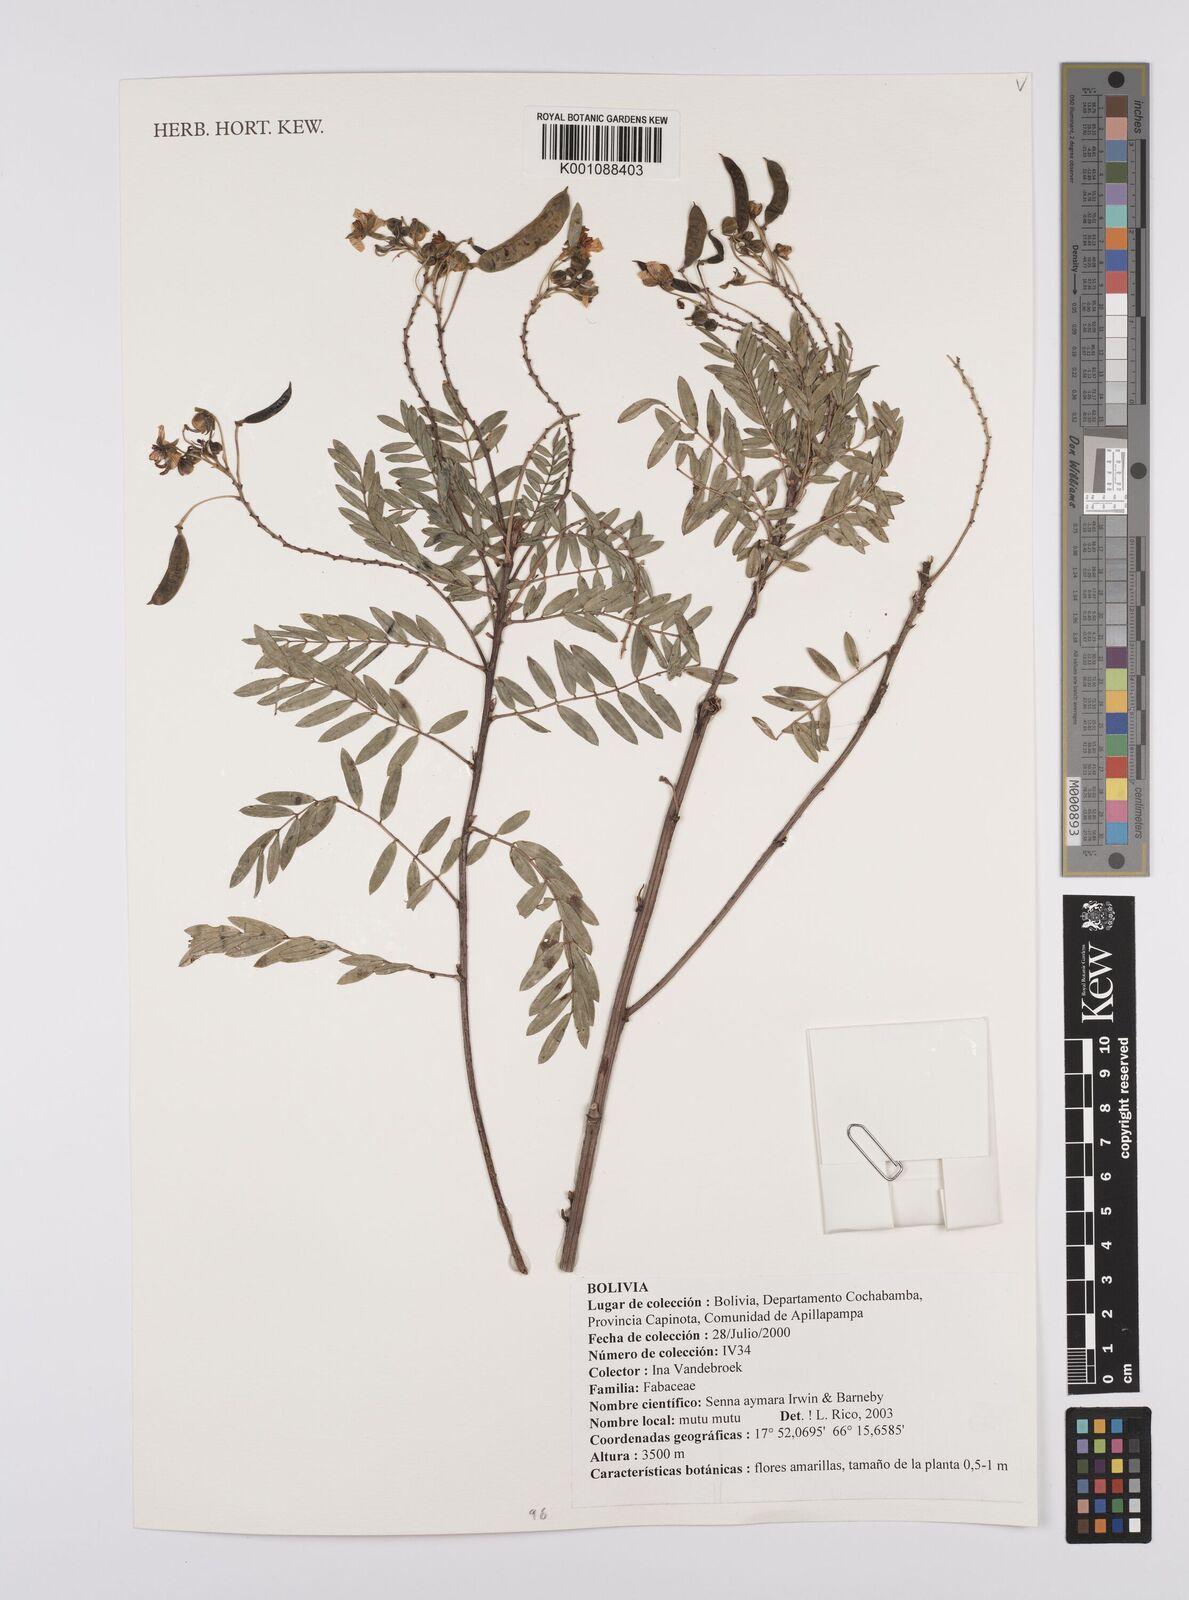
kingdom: Plantae
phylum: Tracheophyta
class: Magnoliopsida
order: Fabales
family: Fabaceae
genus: Senna
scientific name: Senna aymara
